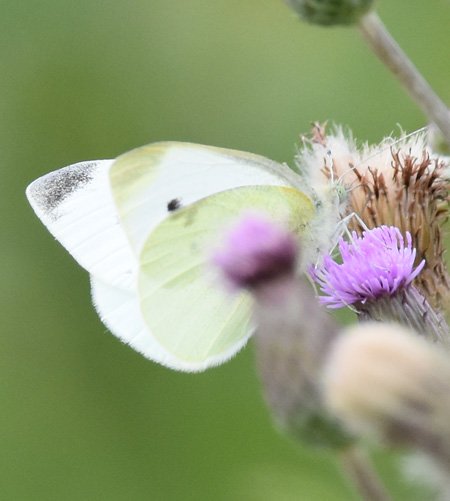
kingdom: Animalia
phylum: Arthropoda
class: Insecta
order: Lepidoptera
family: Pieridae
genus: Pieris
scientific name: Pieris rapae
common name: Cabbage White
